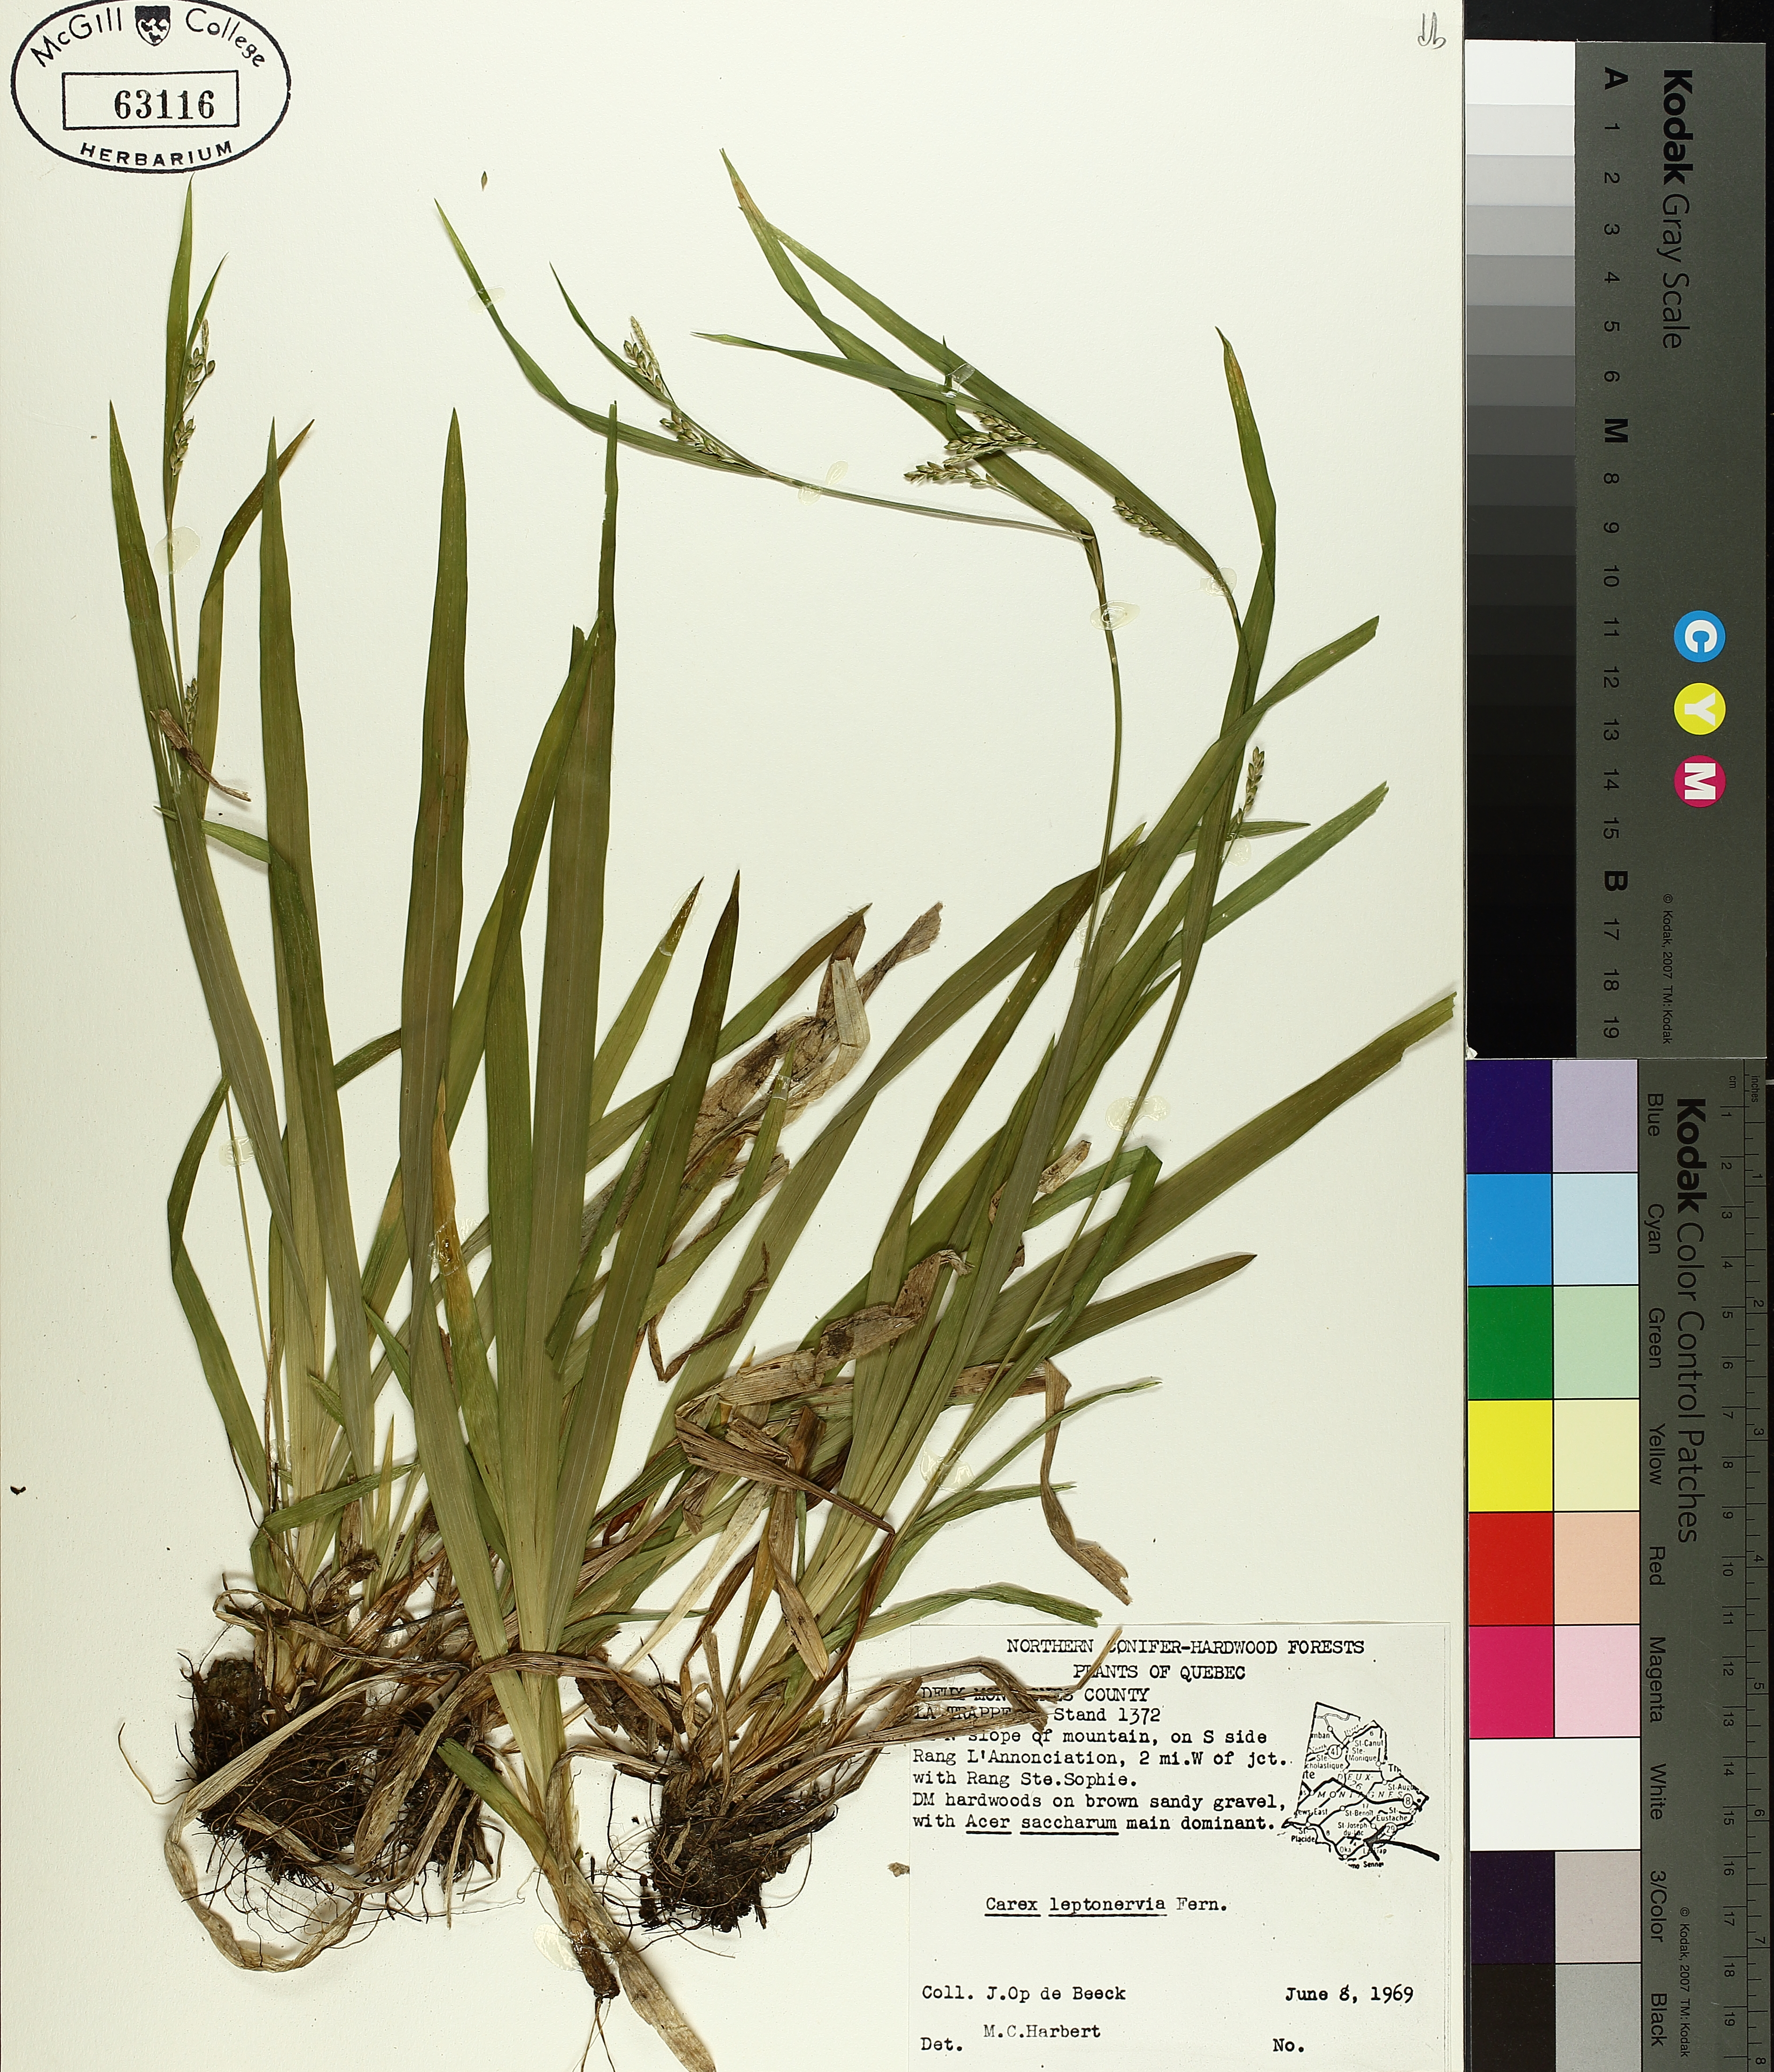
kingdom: Plantae
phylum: Tracheophyta
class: Liliopsida
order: Poales
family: Cyperaceae
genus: Carex
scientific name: Carex leptonervia
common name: Few-nerved wood sedge
